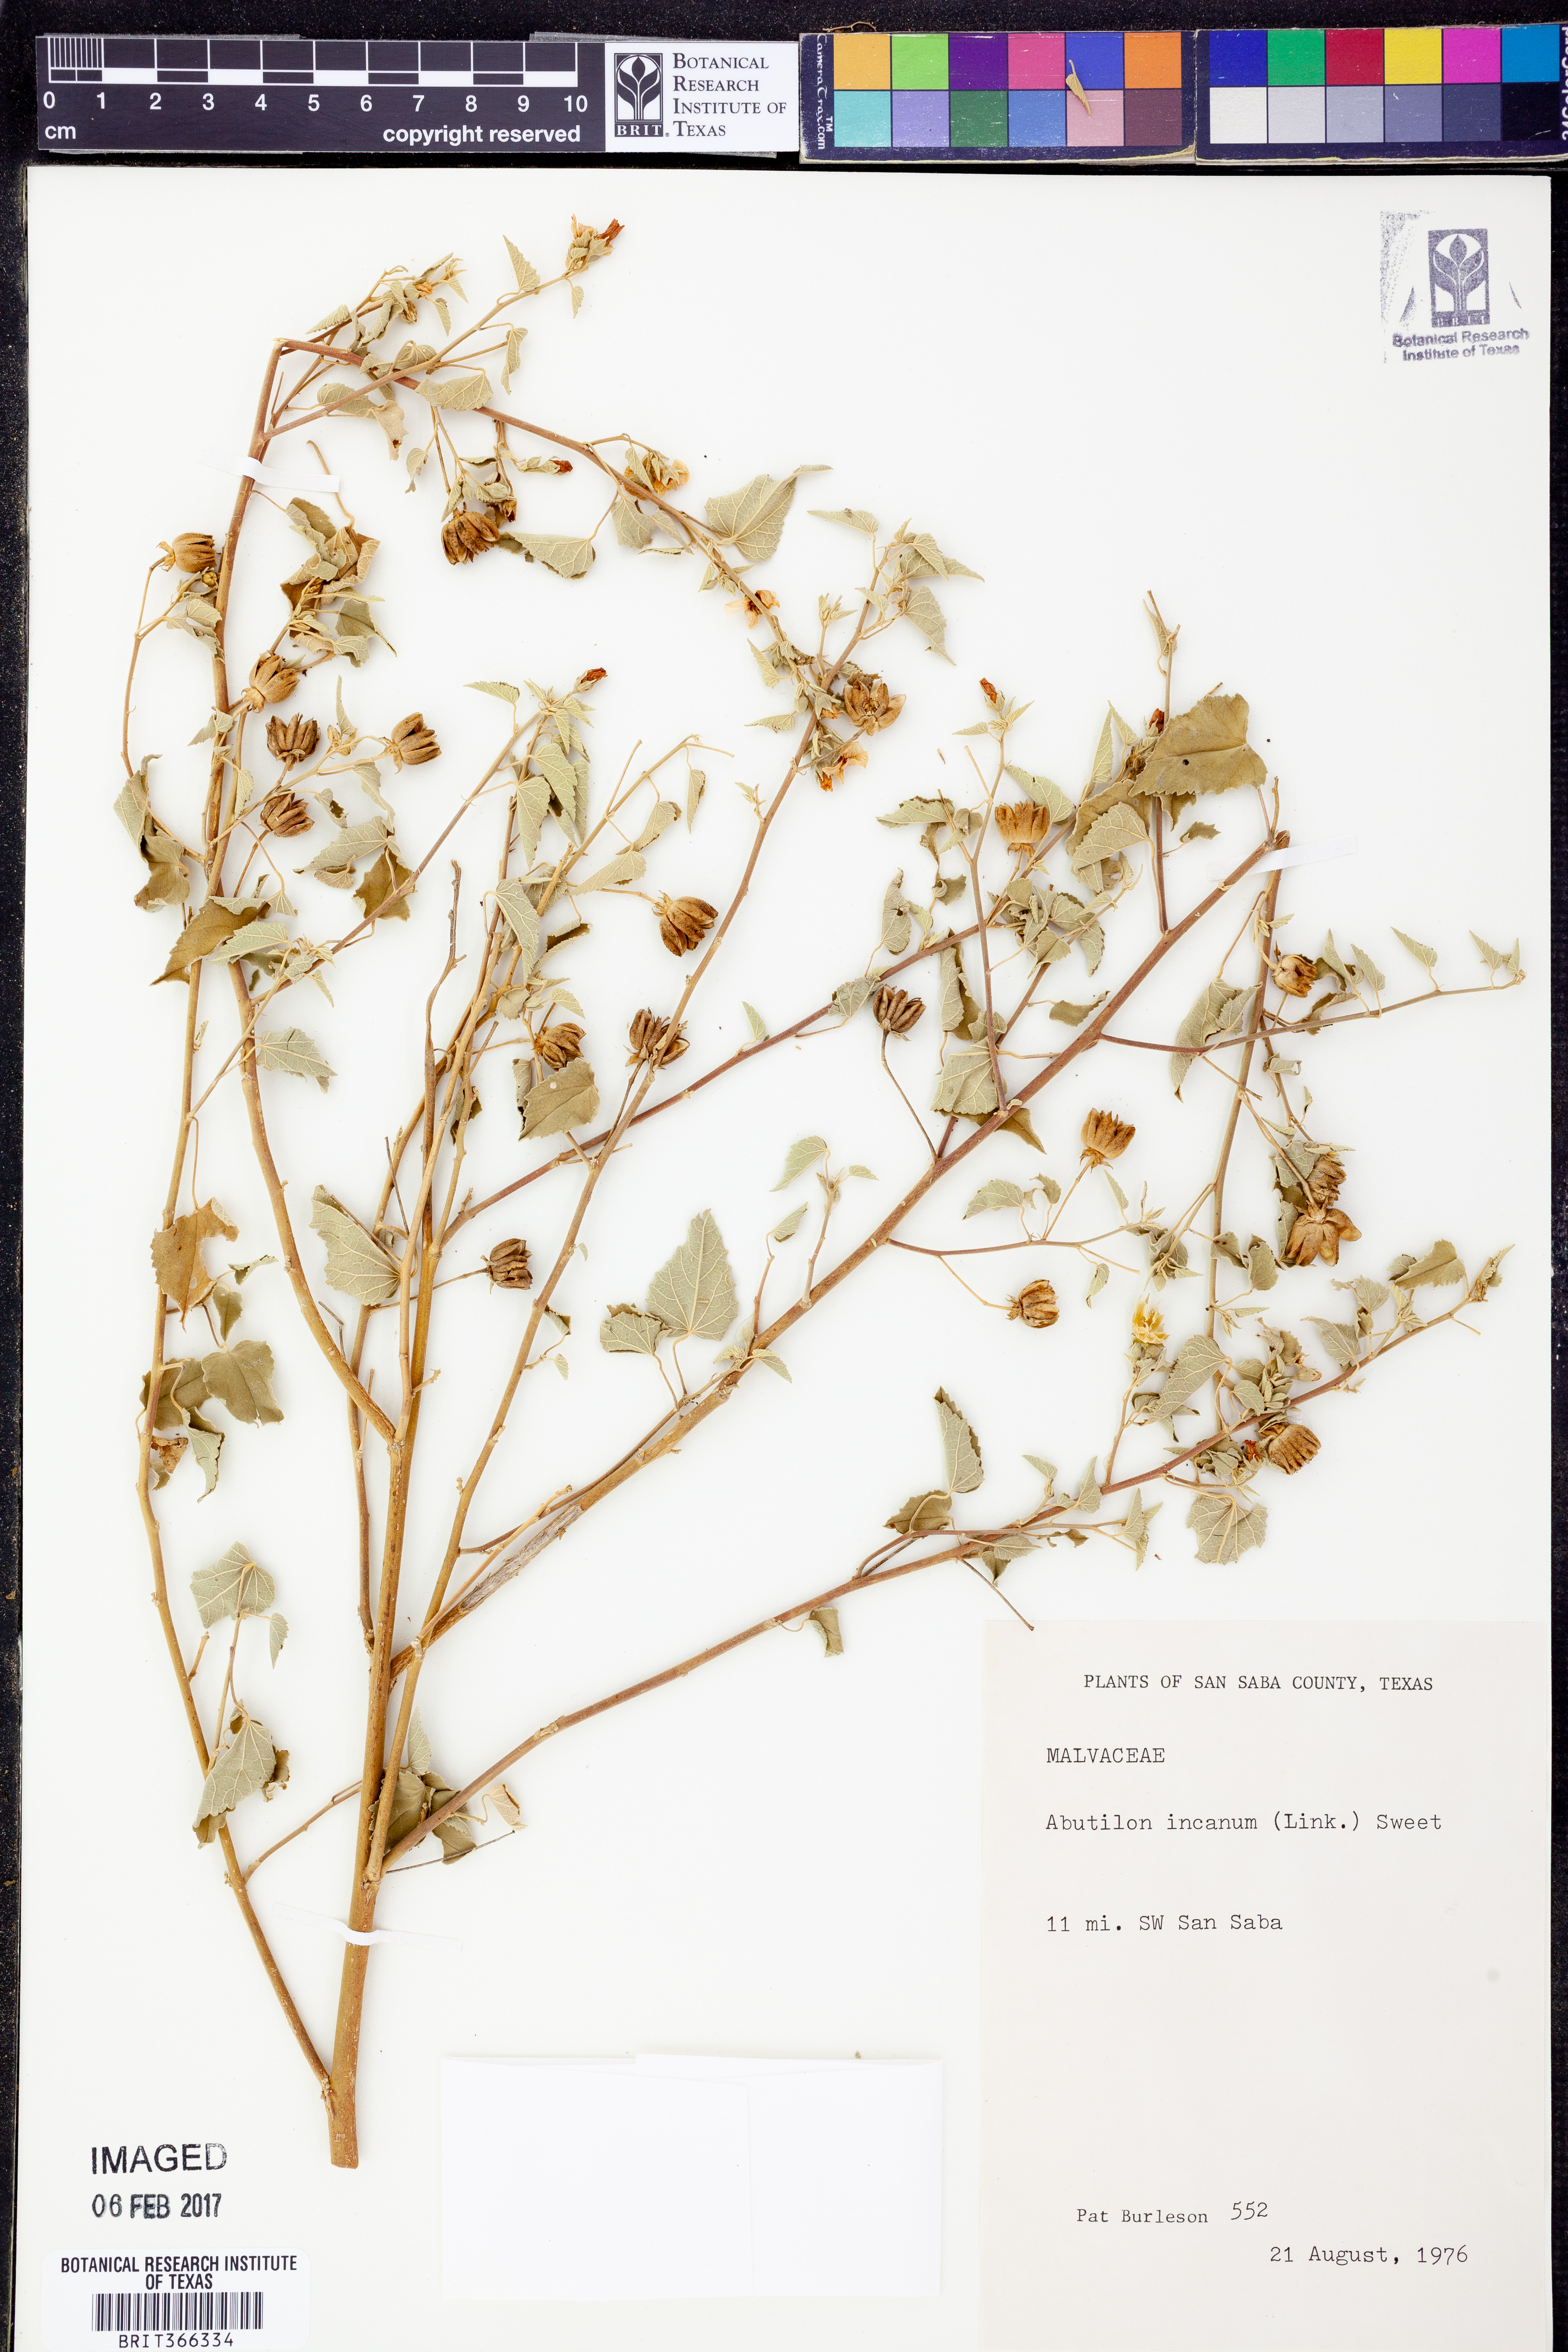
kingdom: Plantae
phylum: Tracheophyta
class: Magnoliopsida
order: Malvales
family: Malvaceae
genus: Abutilon
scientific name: Abutilon incanum
